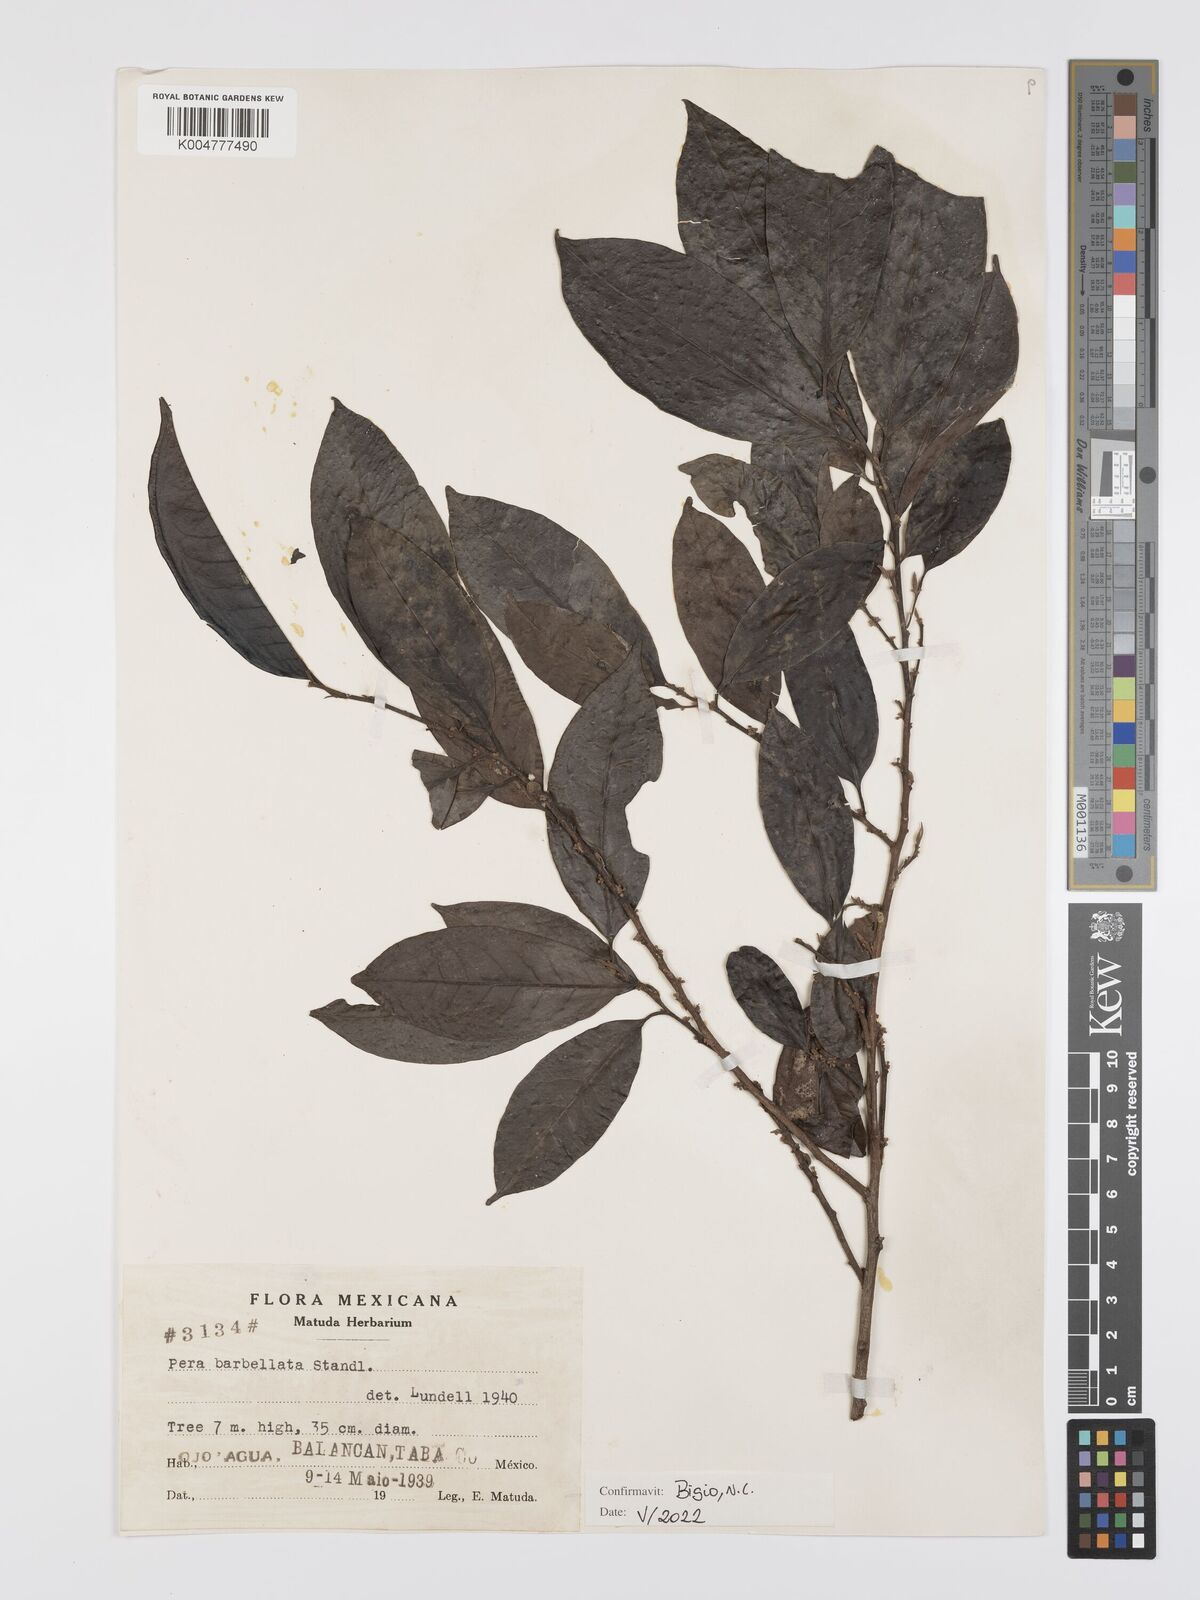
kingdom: Plantae
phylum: Tracheophyta
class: Magnoliopsida
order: Malpighiales
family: Peraceae
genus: Pera
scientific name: Pera barbellata
